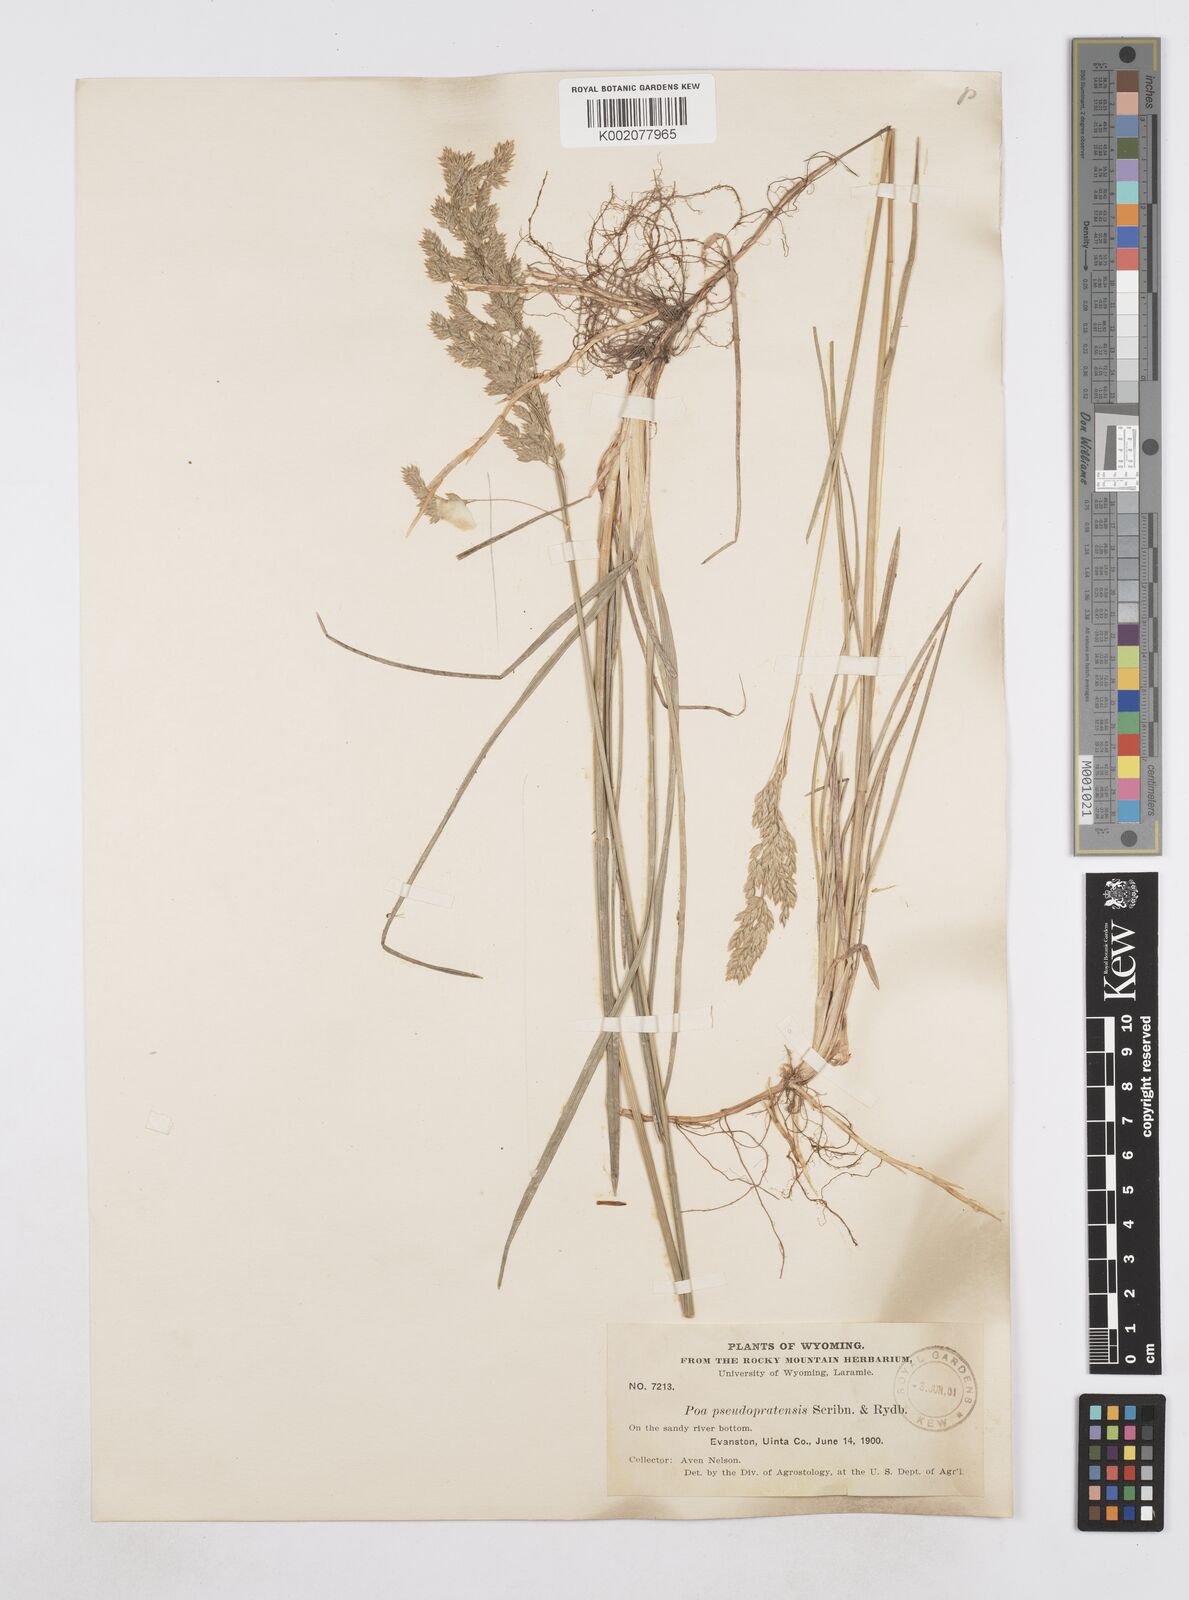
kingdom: Plantae
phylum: Tracheophyta
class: Liliopsida
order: Poales
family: Poaceae
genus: Poa
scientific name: Poa arida
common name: Plains bluegrass
